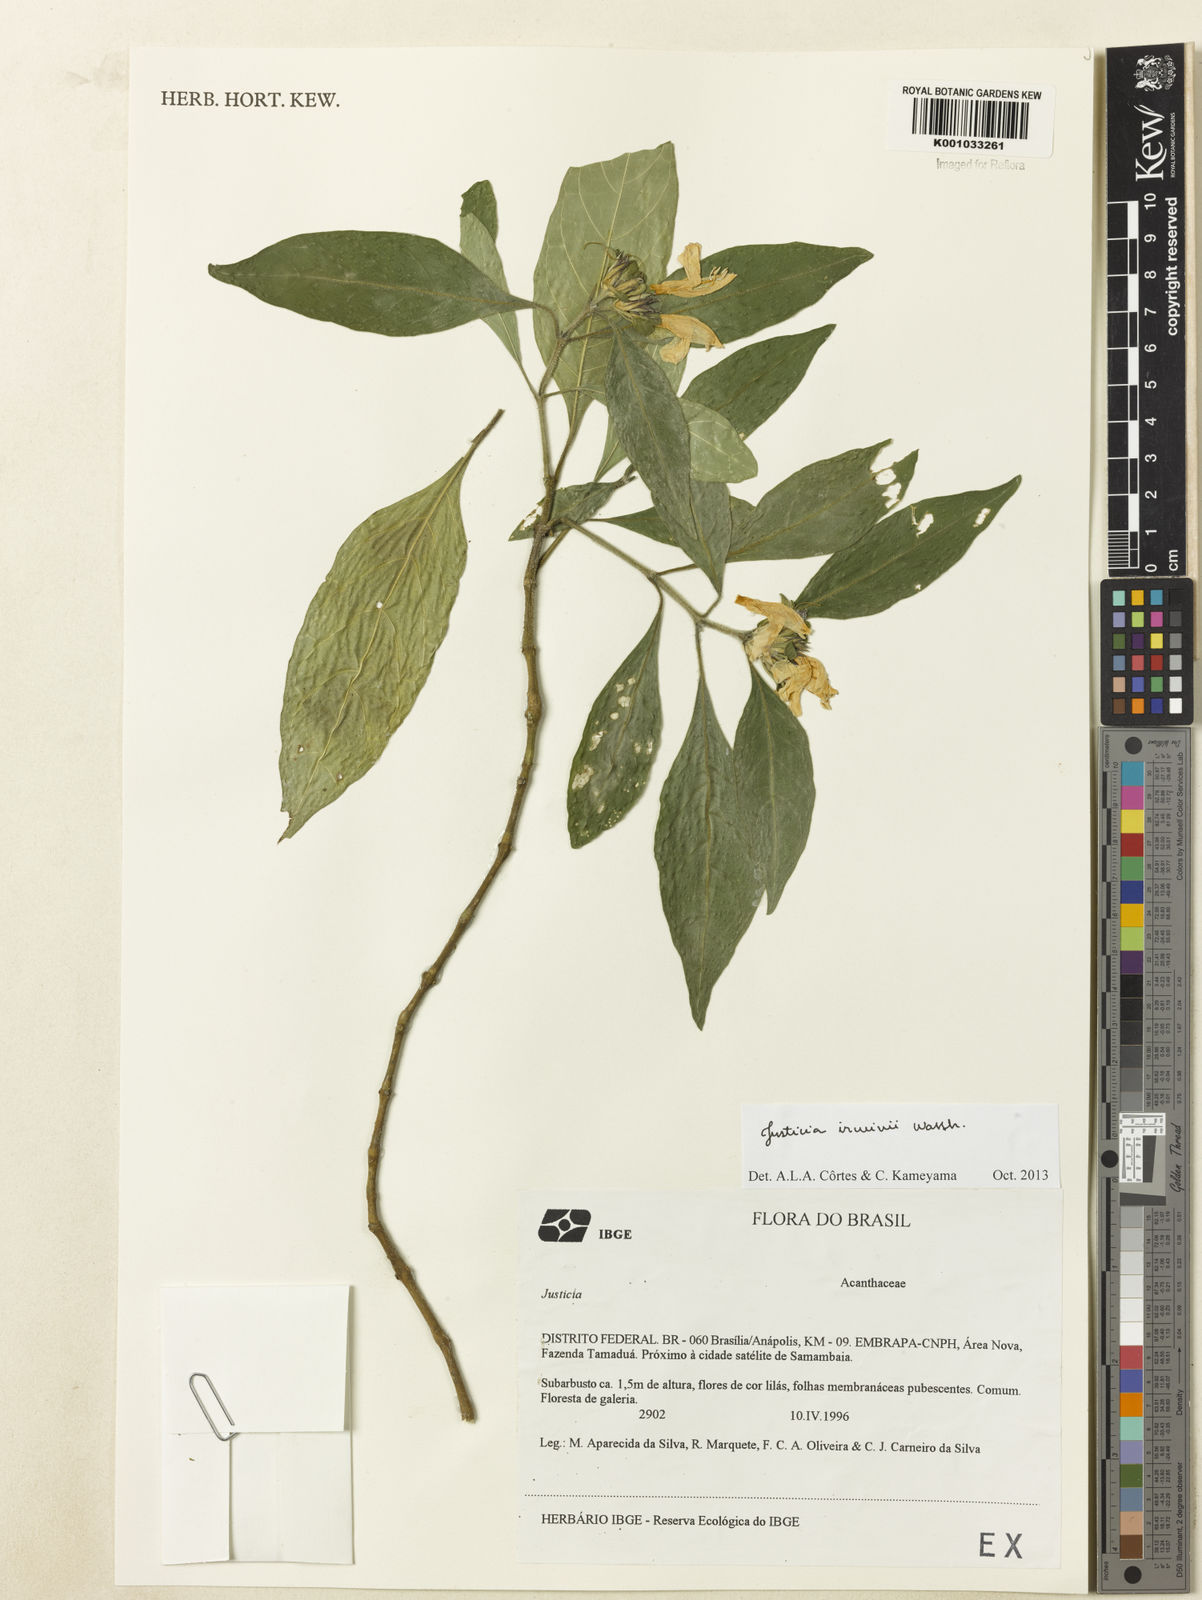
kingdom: Plantae
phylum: Tracheophyta
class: Magnoliopsida
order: Lamiales
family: Acanthaceae
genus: Justicia
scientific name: Justicia irwinii
